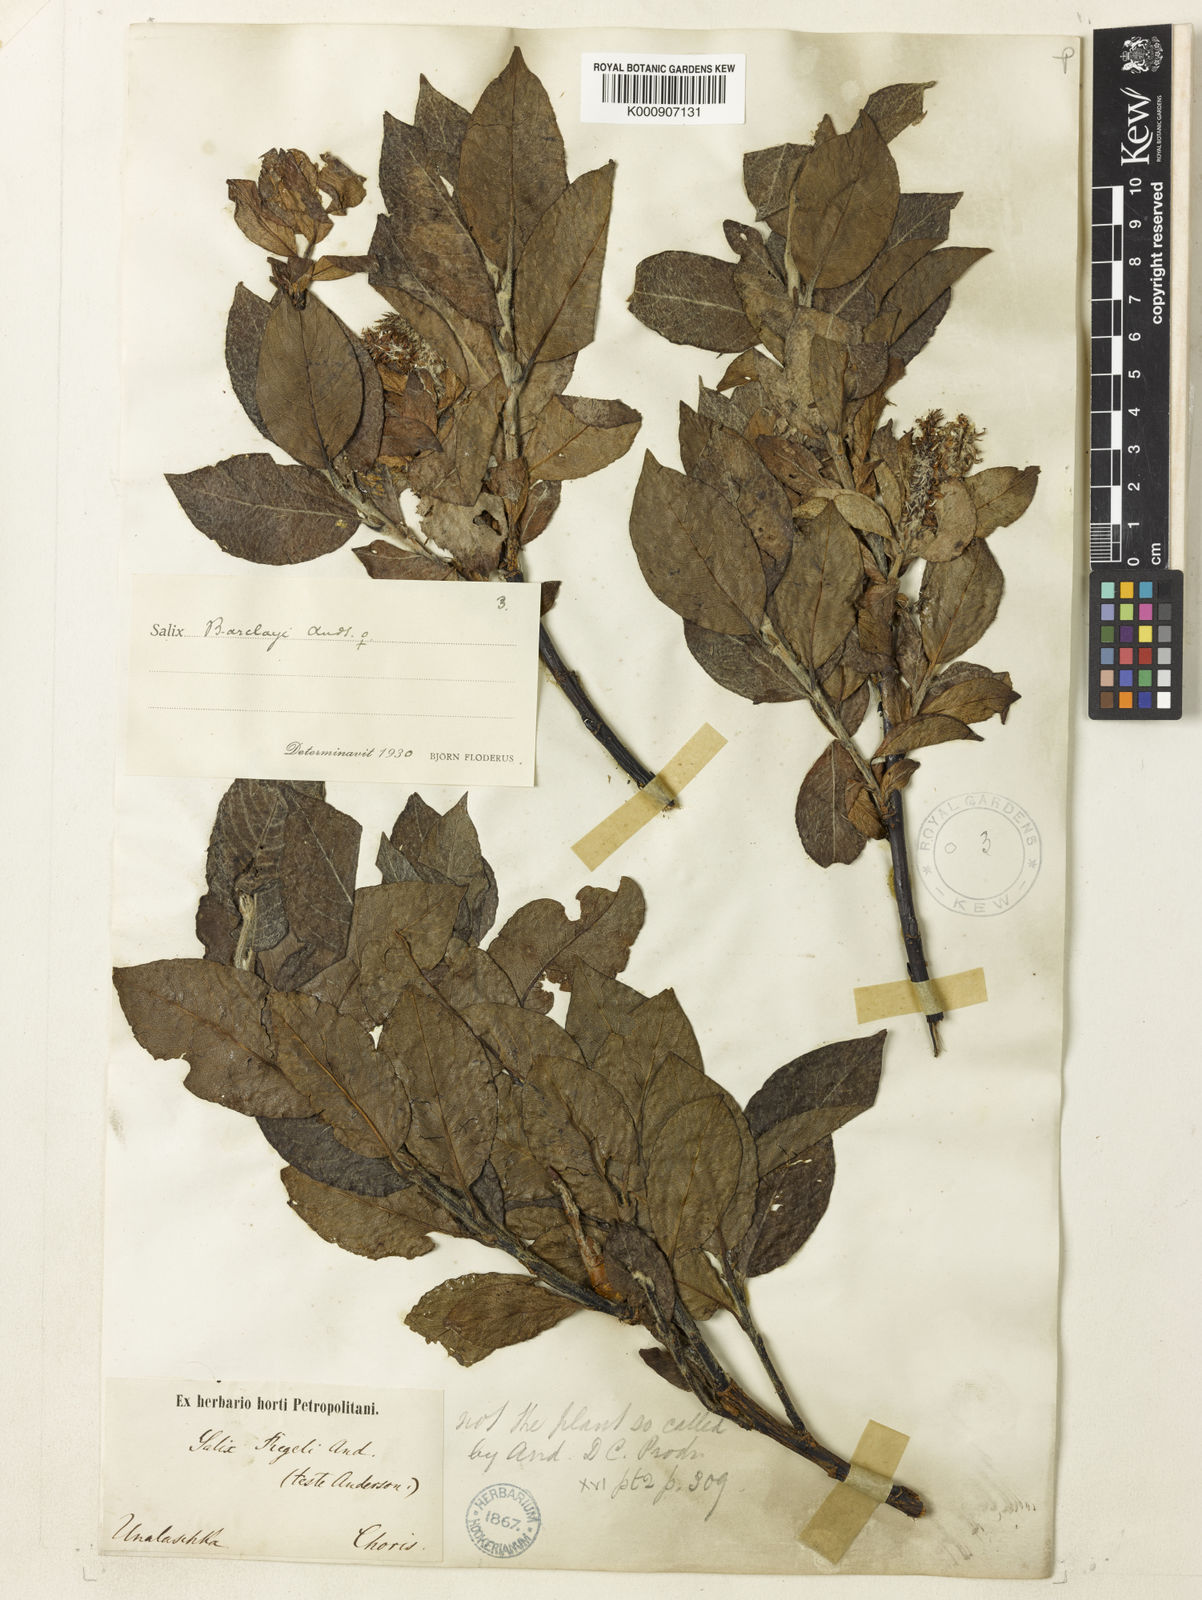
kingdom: Plantae
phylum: Tracheophyta
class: Magnoliopsida
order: Malpighiales
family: Salicaceae
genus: Salix
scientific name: Salix barclayi
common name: Mountain willow
